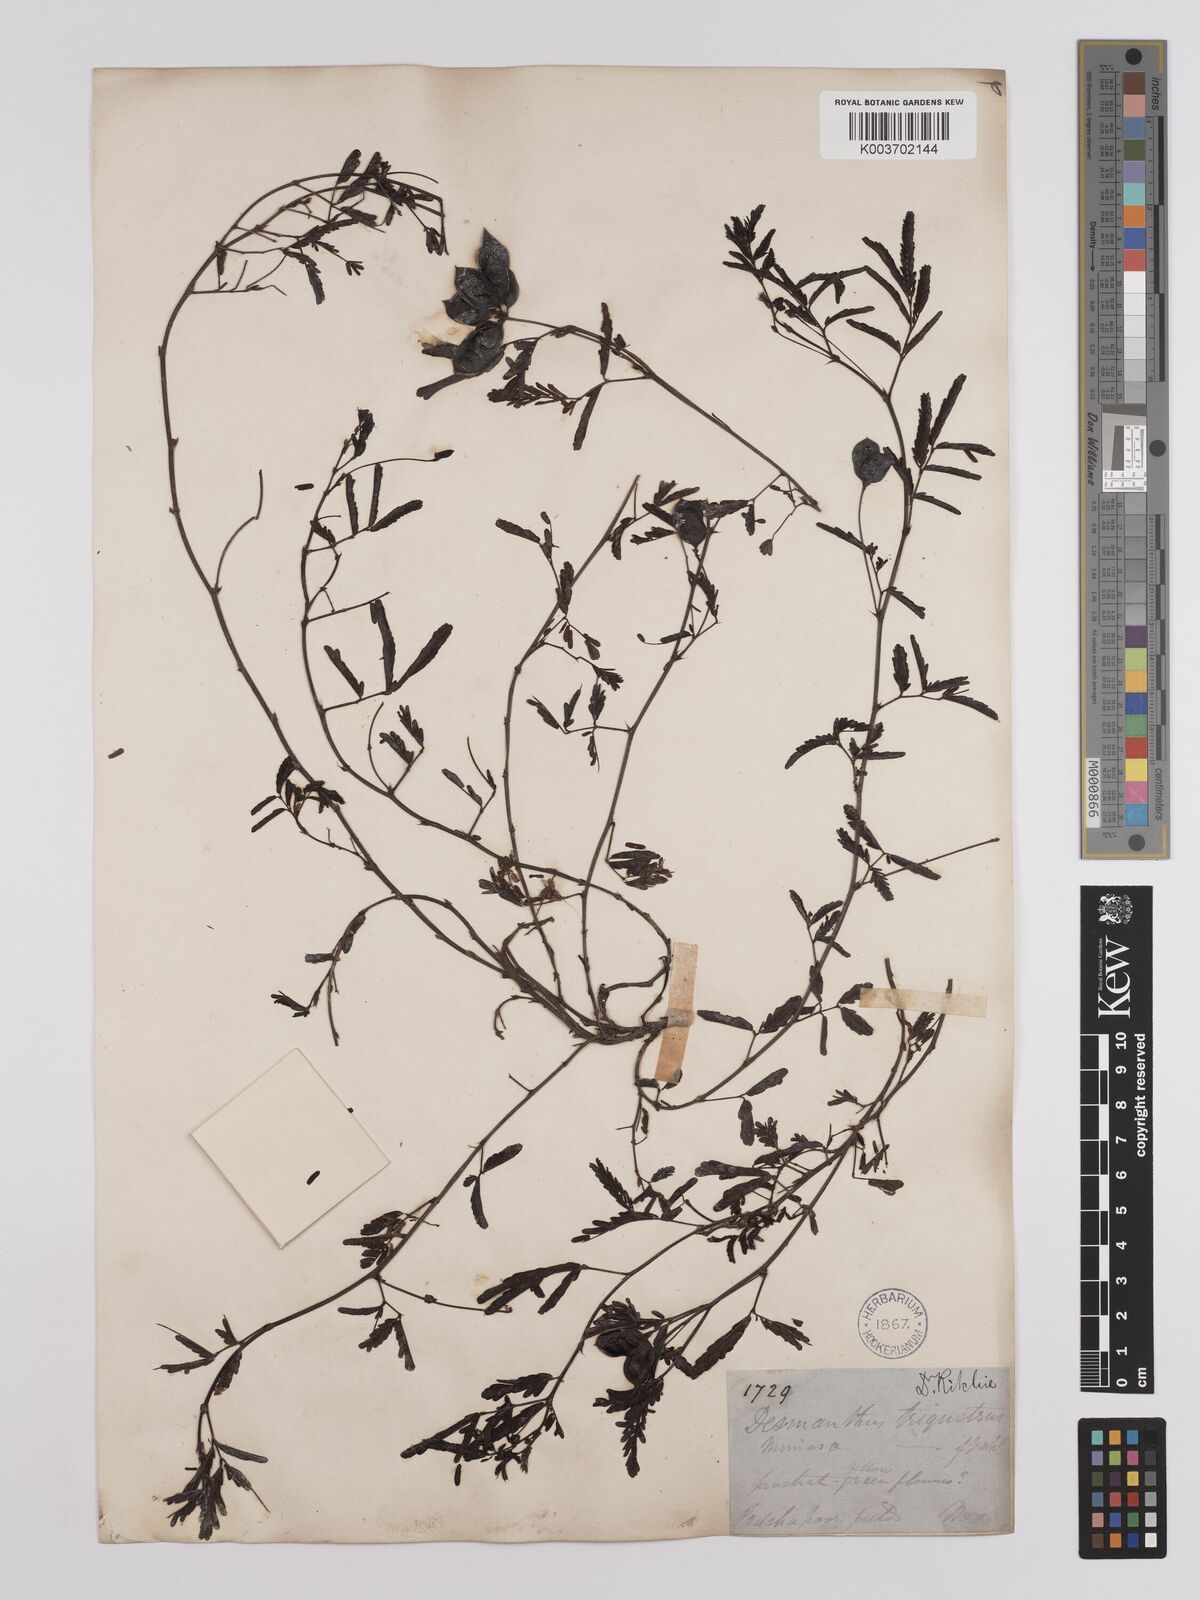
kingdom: Plantae
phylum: Tracheophyta
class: Magnoliopsida
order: Fabales
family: Fabaceae
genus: Neptunia
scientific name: Neptunia triquetra
